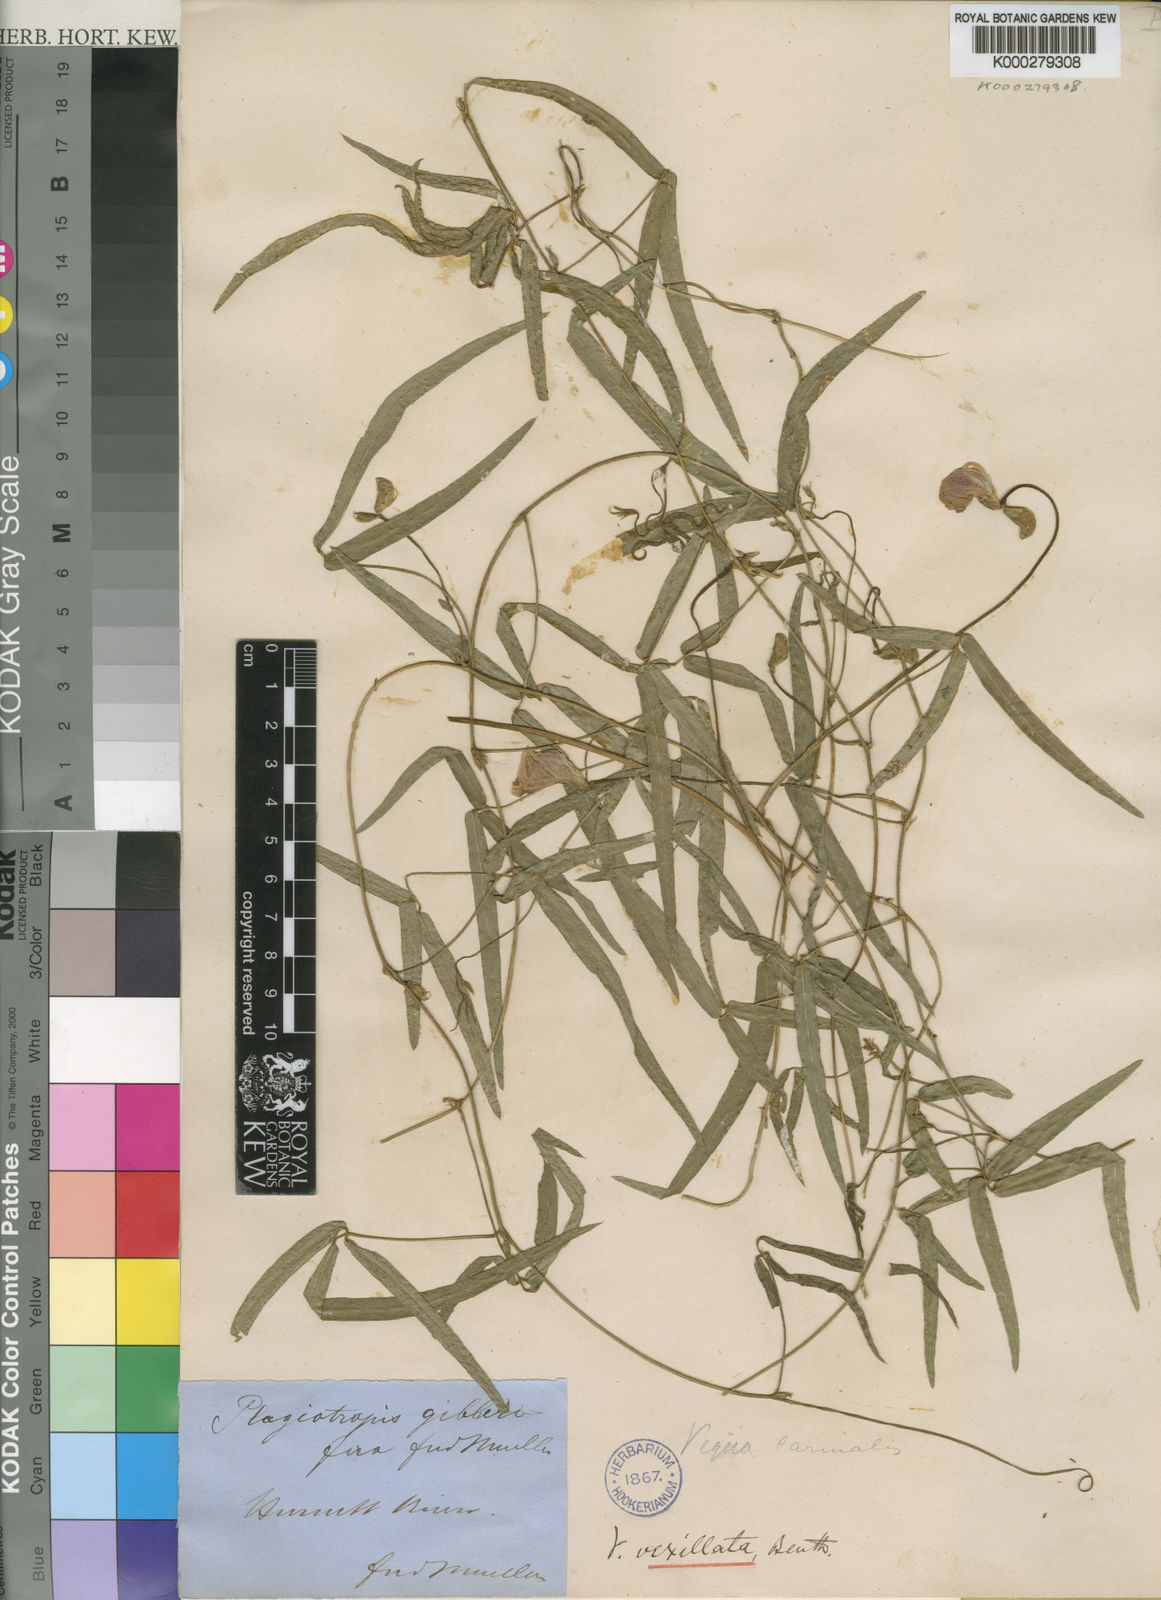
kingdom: Plantae
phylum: Tracheophyta
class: Magnoliopsida
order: Fabales
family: Fabaceae
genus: Vigna
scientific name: Vigna vexillata
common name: Zombi pea
